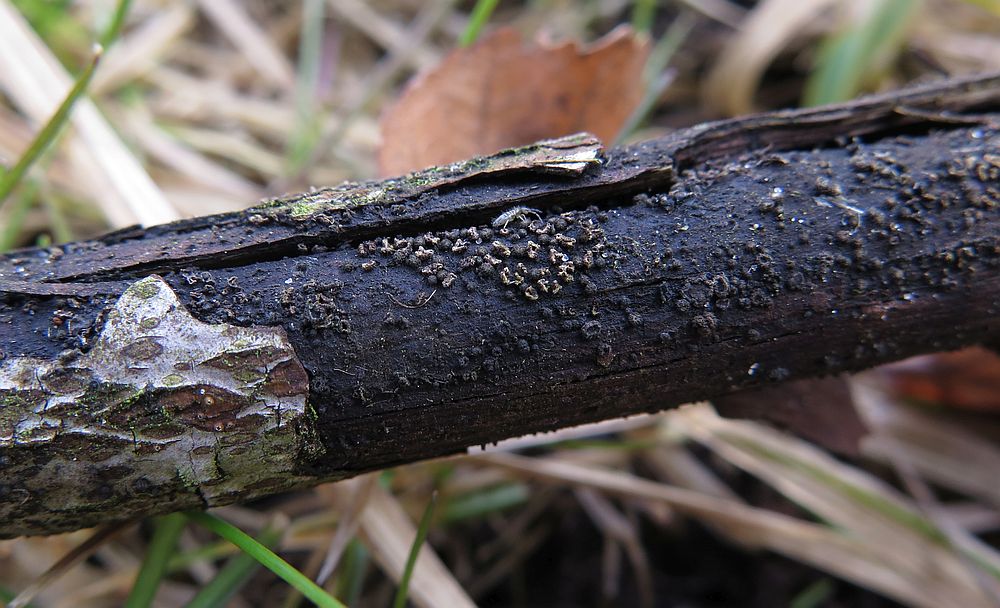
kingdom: Fungi
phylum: Ascomycota
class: Leotiomycetes
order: Helotiales
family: Mollisiaceae
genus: Mollisia
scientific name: Mollisia rosae
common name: rose-gråskive
